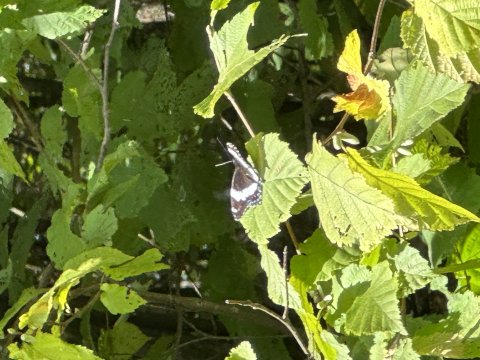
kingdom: Animalia
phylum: Arthropoda
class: Insecta
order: Lepidoptera
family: Nymphalidae
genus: Limenitis
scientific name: Limenitis arthemis
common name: Red-spotted Admiral
